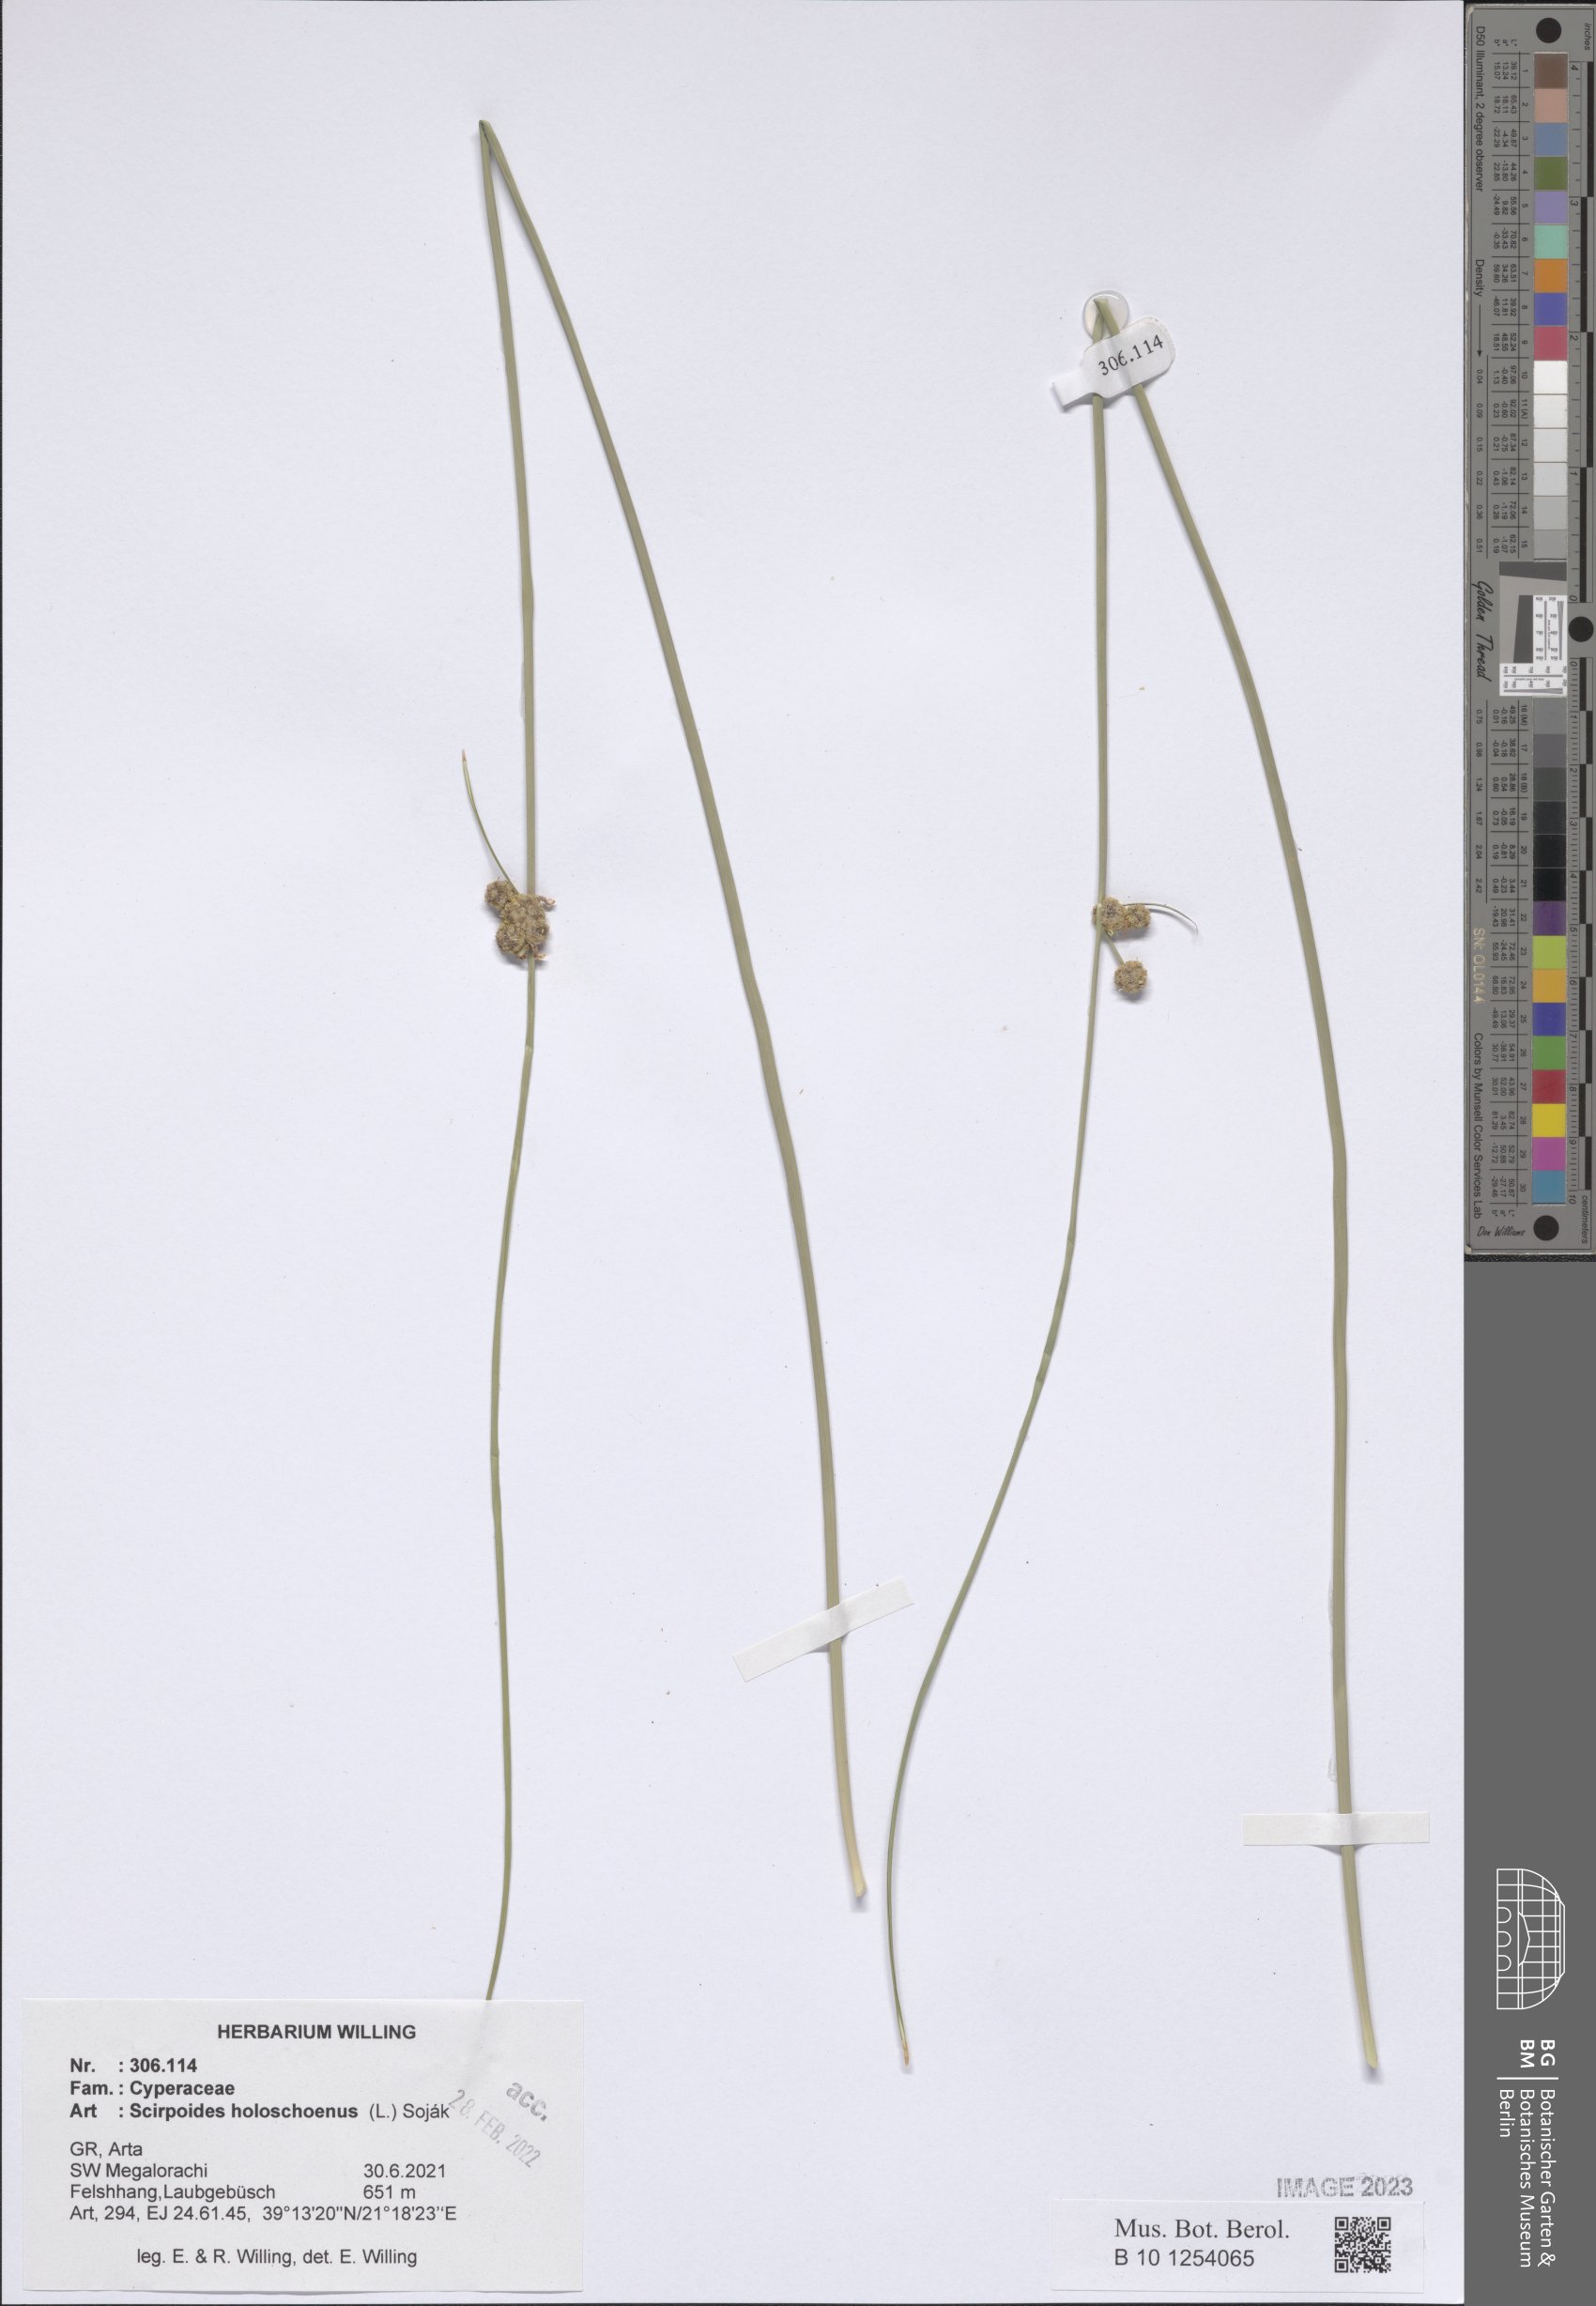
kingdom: Plantae
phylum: Tracheophyta
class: Liliopsida
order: Poales
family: Cyperaceae
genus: Scirpoides
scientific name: Scirpoides
